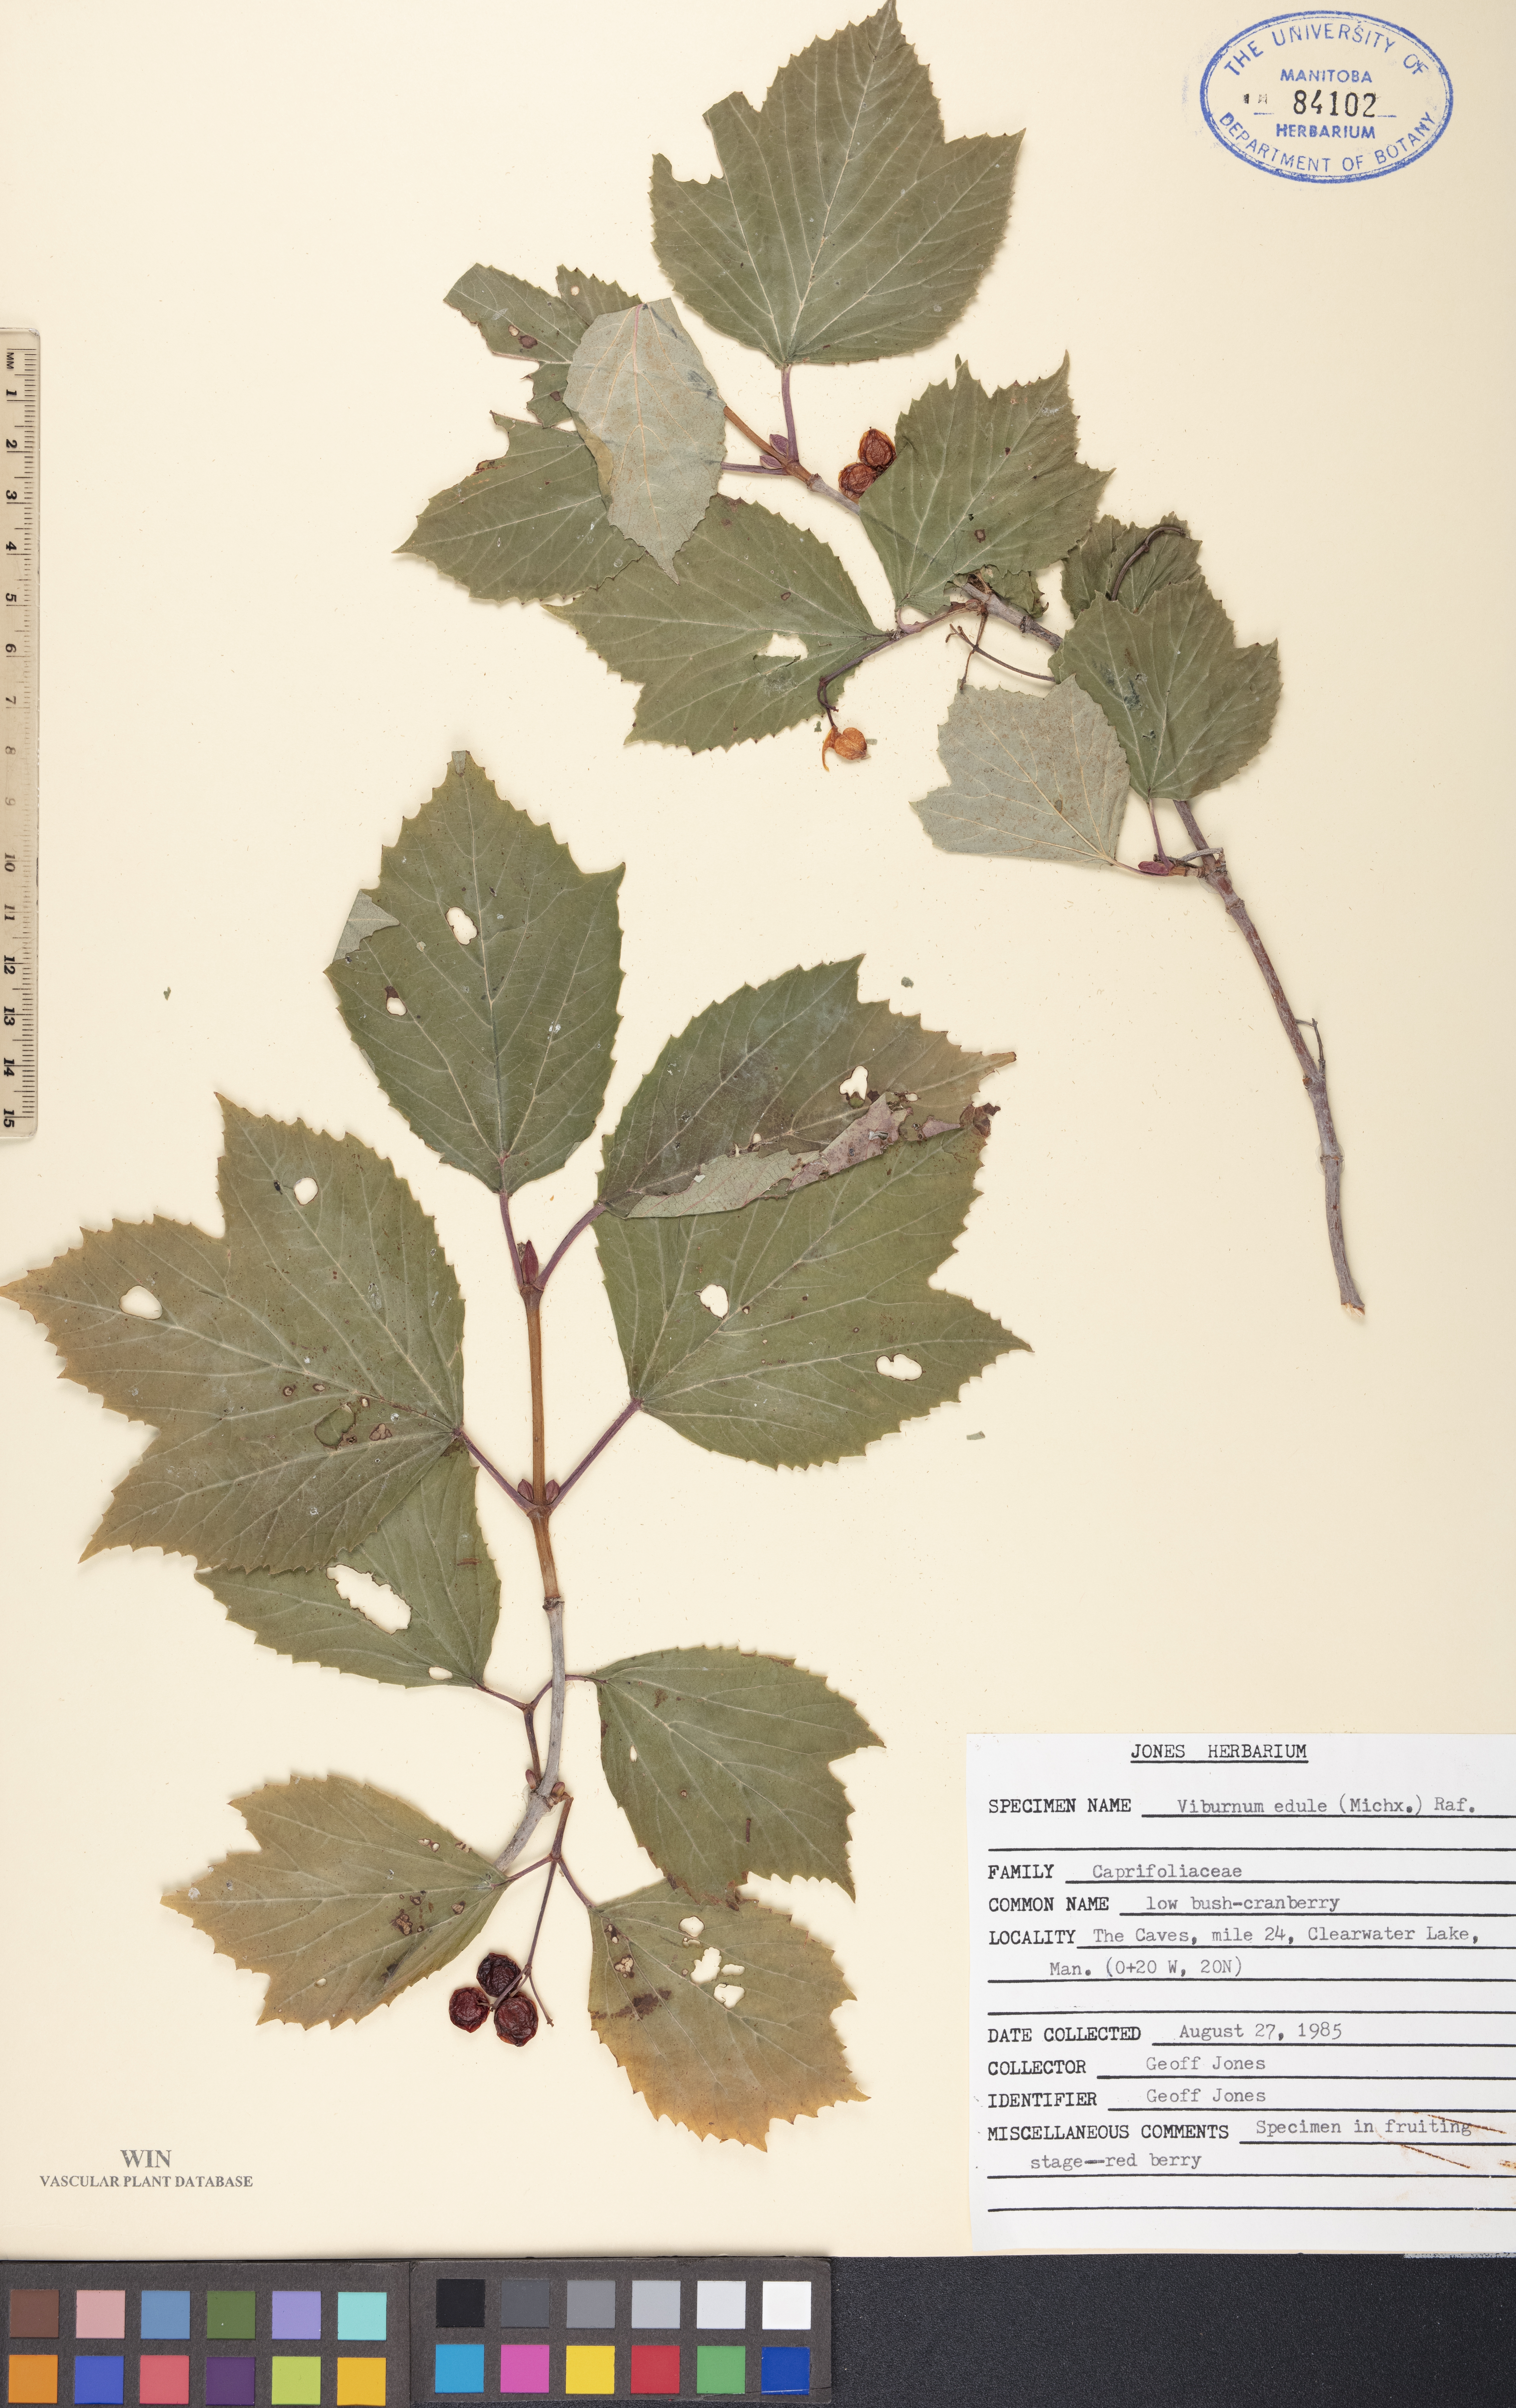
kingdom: Plantae
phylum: Tracheophyta
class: Magnoliopsida
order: Dipsacales
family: Viburnaceae
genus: Viburnum
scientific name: Viburnum edule
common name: Mooseberry
